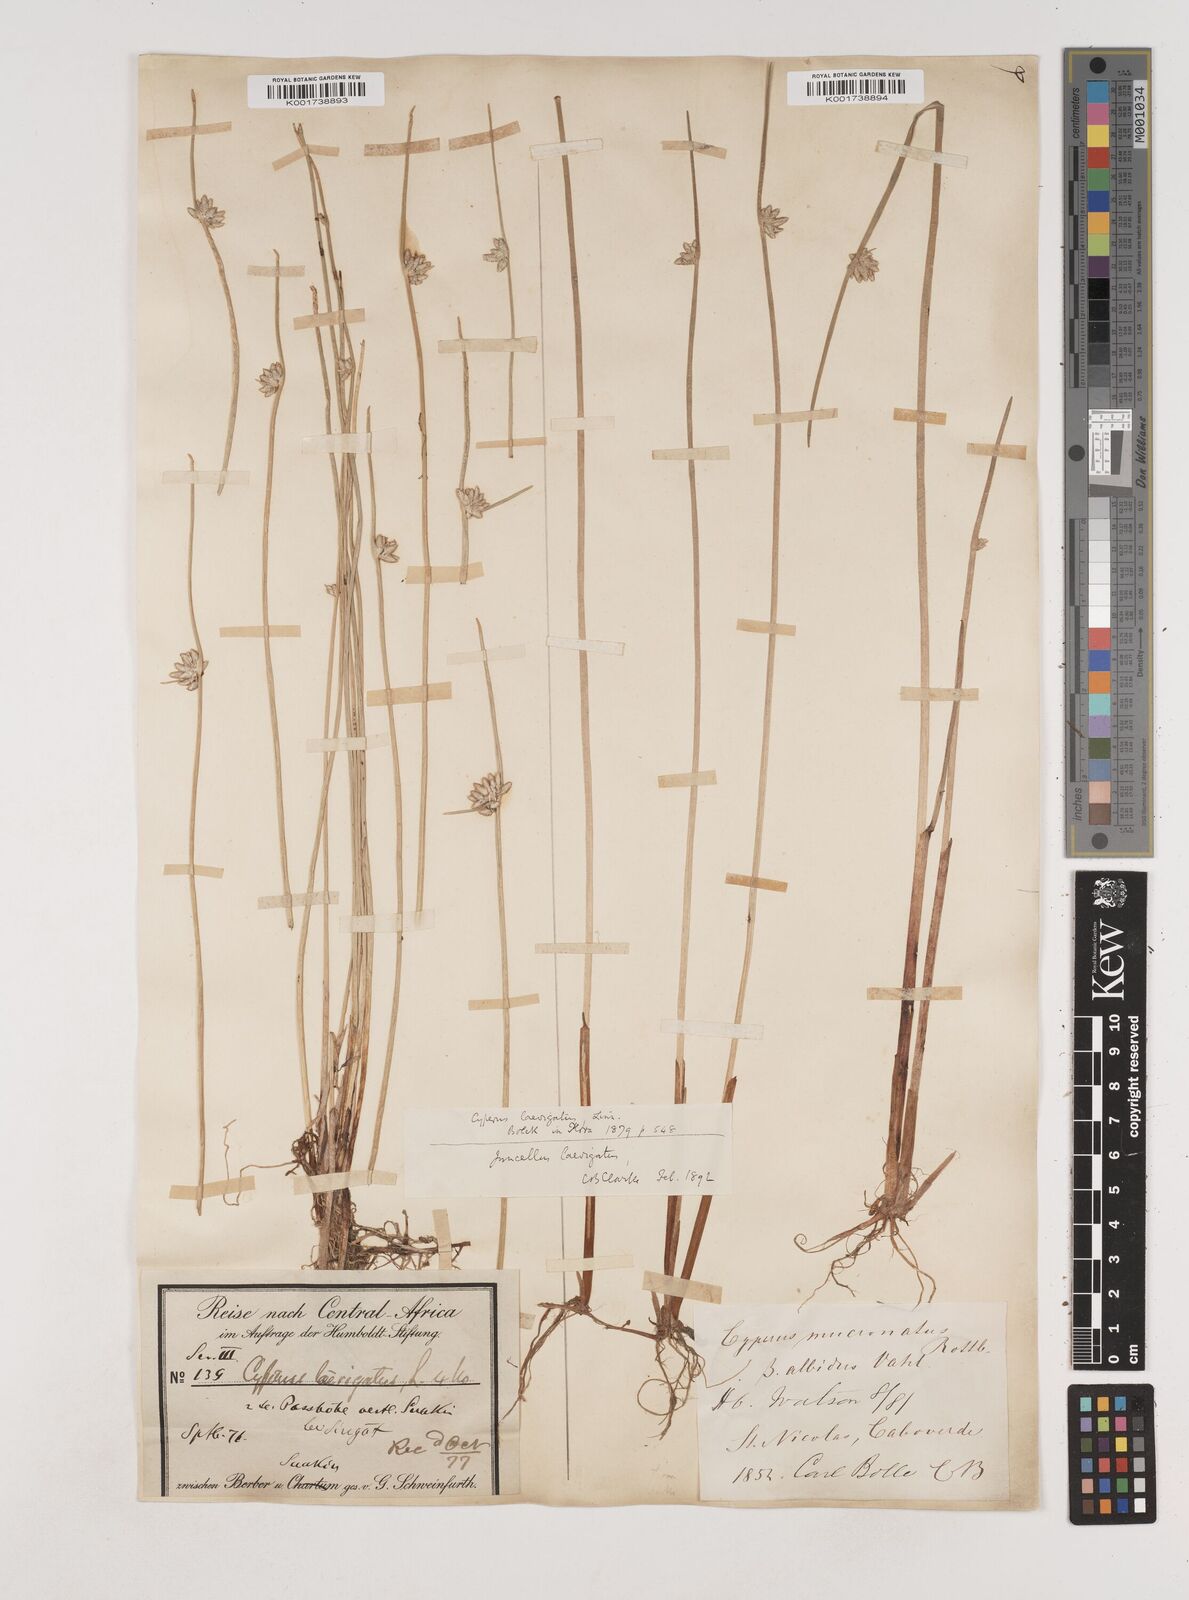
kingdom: Plantae
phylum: Tracheophyta
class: Liliopsida
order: Poales
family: Cyperaceae
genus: Cyperus
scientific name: Cyperus laevigatus
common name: Smooth flat sedge
